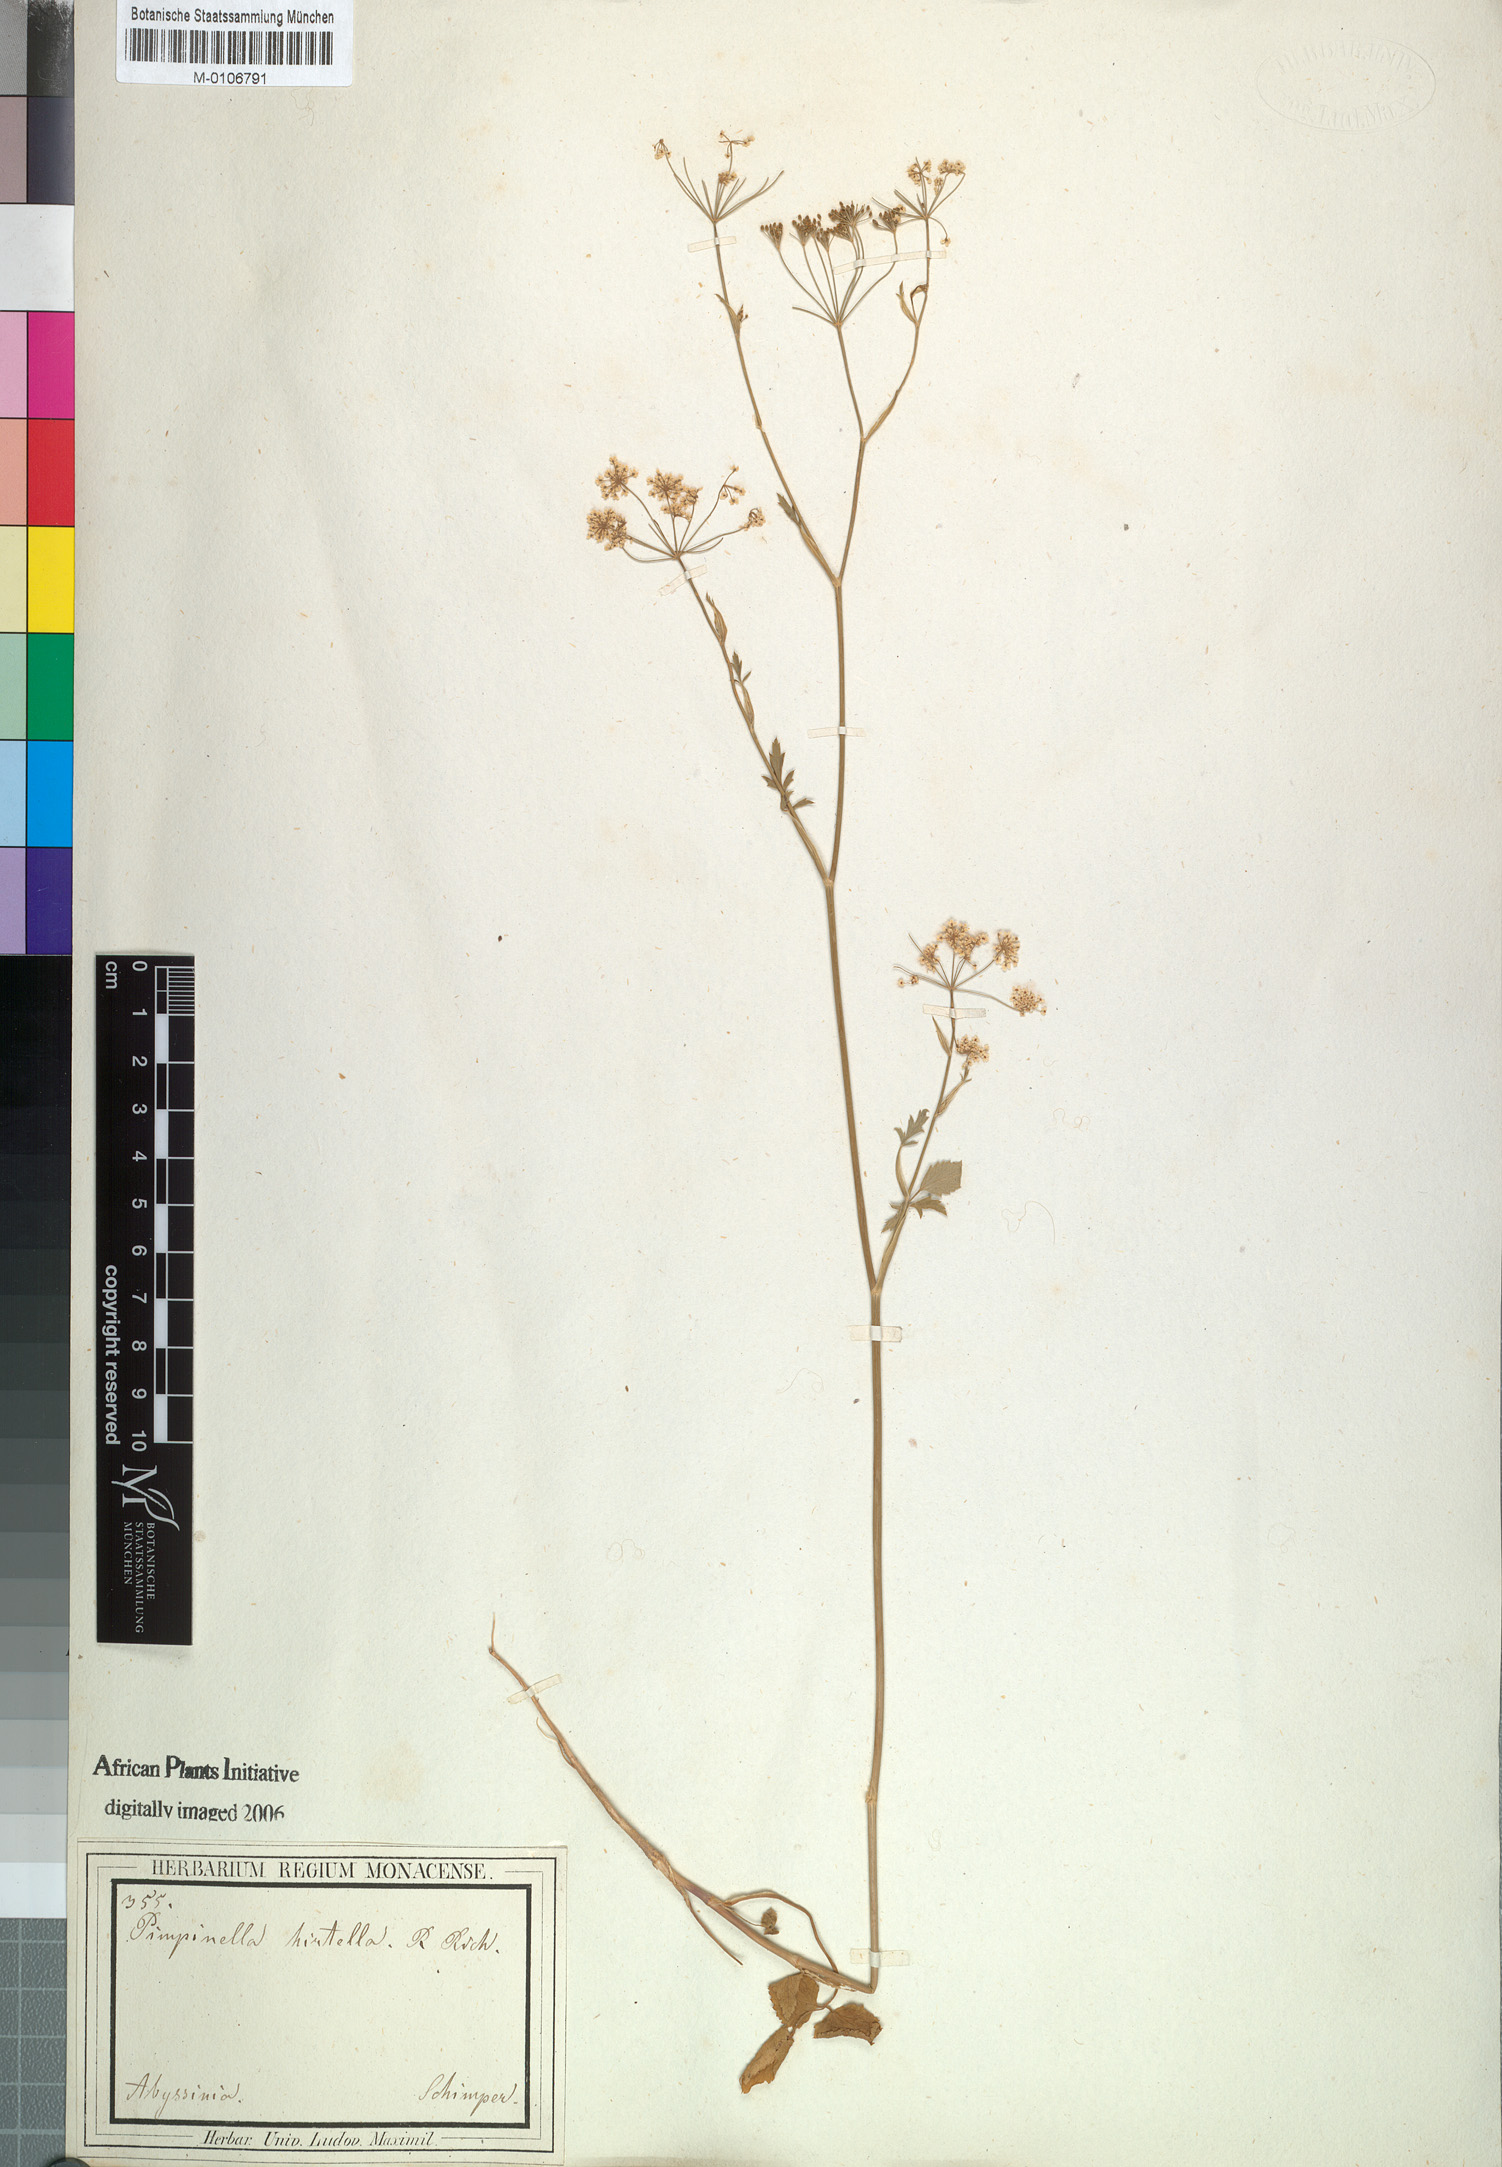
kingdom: Plantae
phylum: Tracheophyta
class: Magnoliopsida
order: Apiales
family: Apiaceae
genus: Pimpinella
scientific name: Pimpinella hirtella
